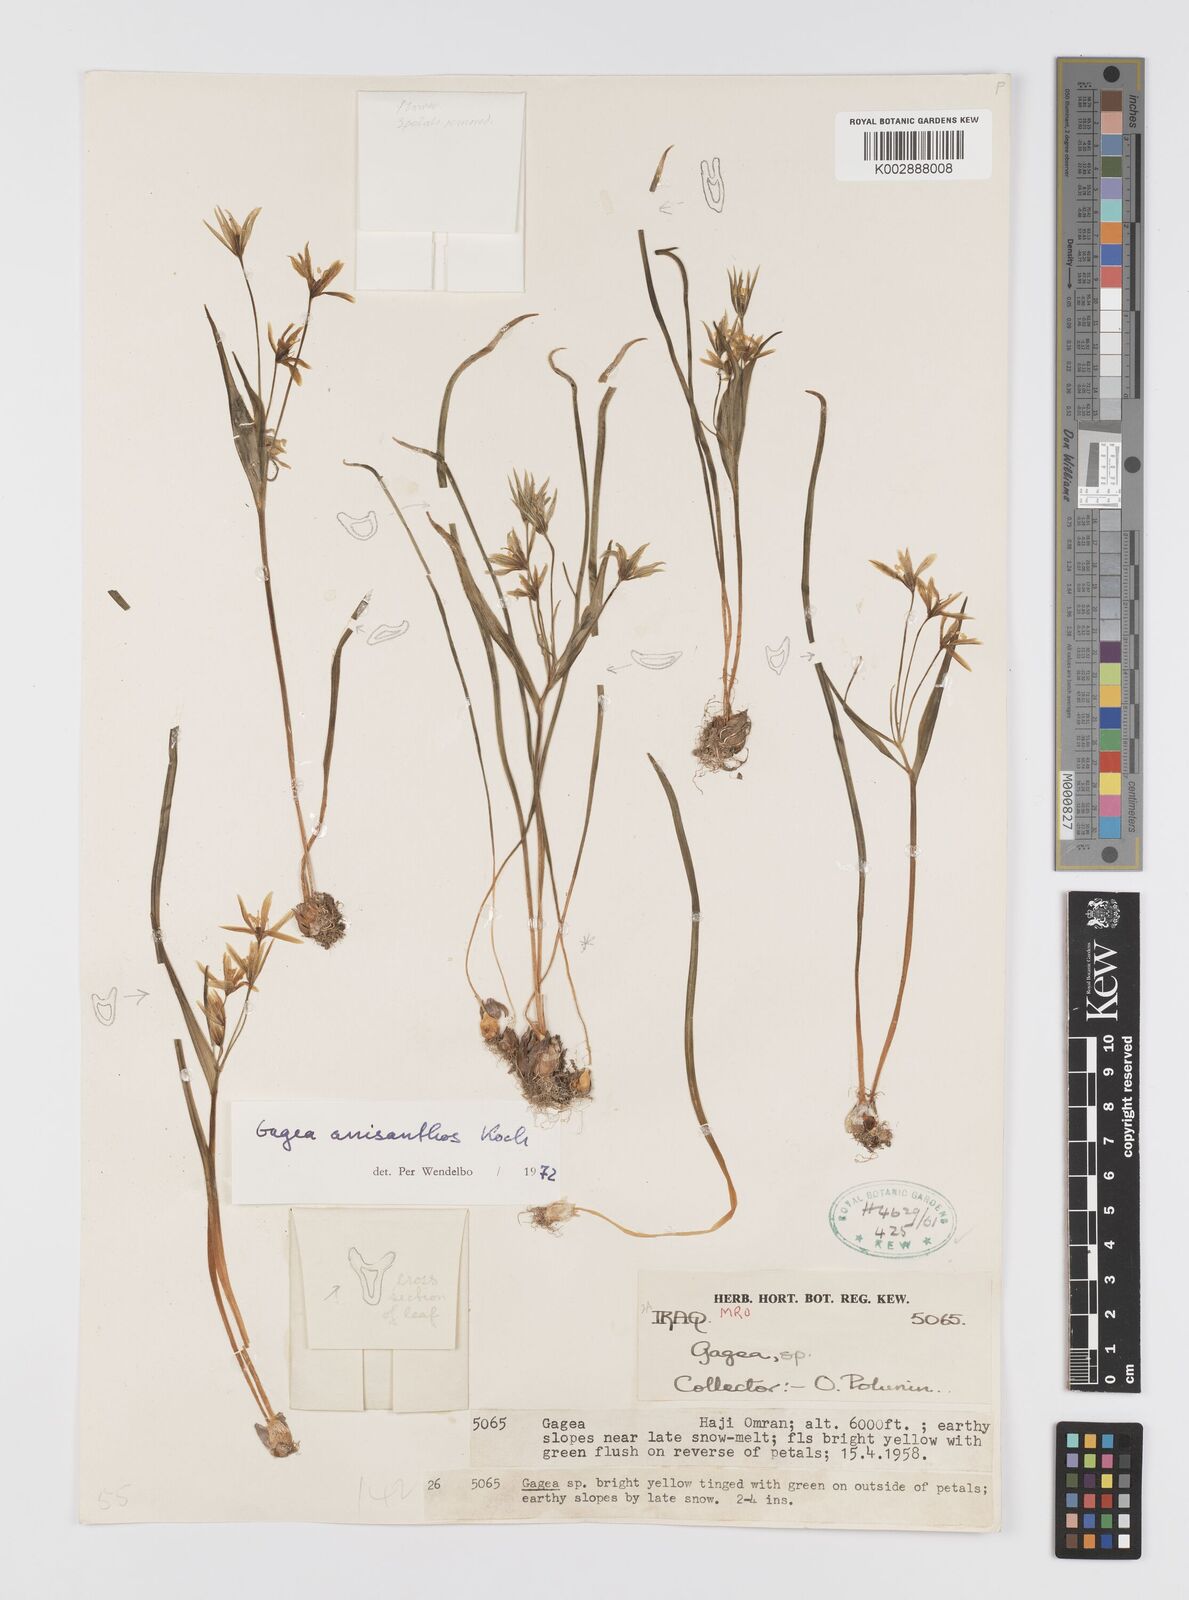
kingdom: Plantae
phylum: Tracheophyta
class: Liliopsida
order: Liliales
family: Liliaceae
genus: Gagea
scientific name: Gagea fragifera
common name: Lily
